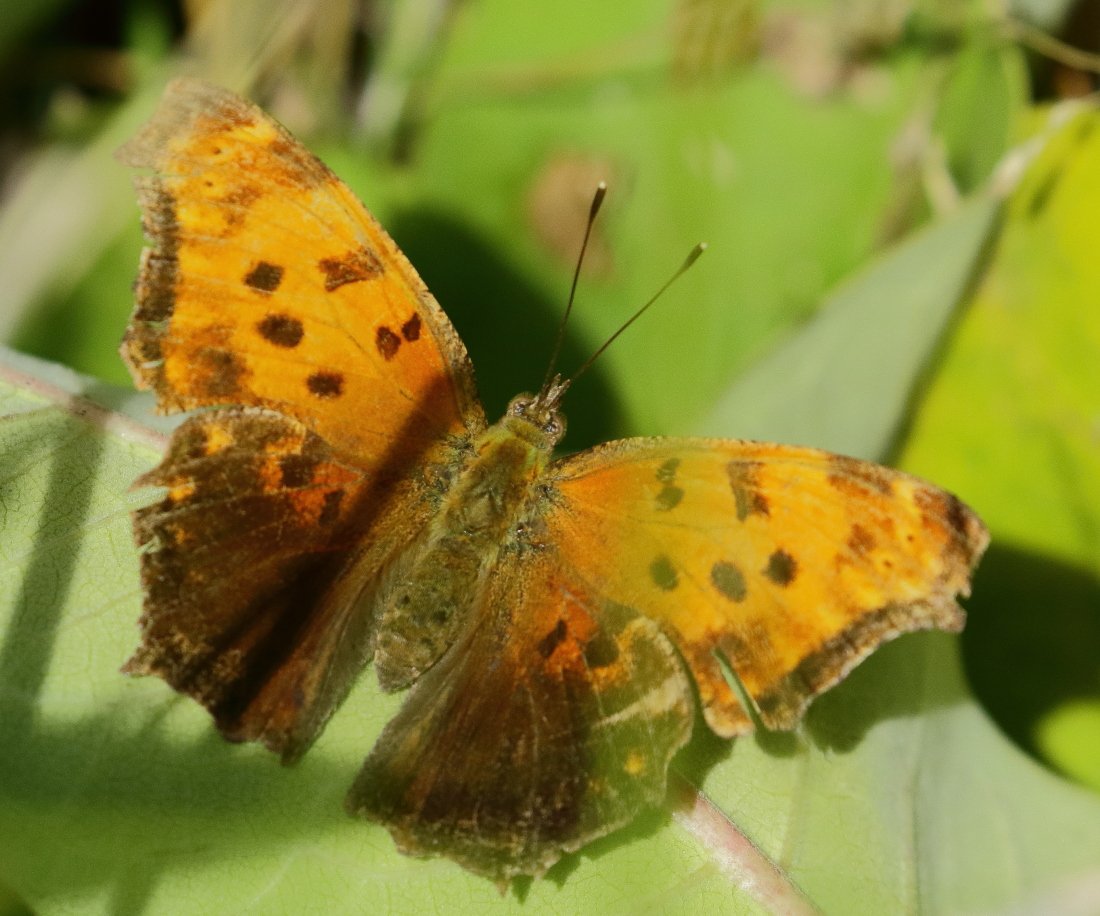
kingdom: Animalia
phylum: Arthropoda
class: Insecta
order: Lepidoptera
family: Nymphalidae
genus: Polygonia
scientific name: Polygonia comma
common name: Eastern Comma
